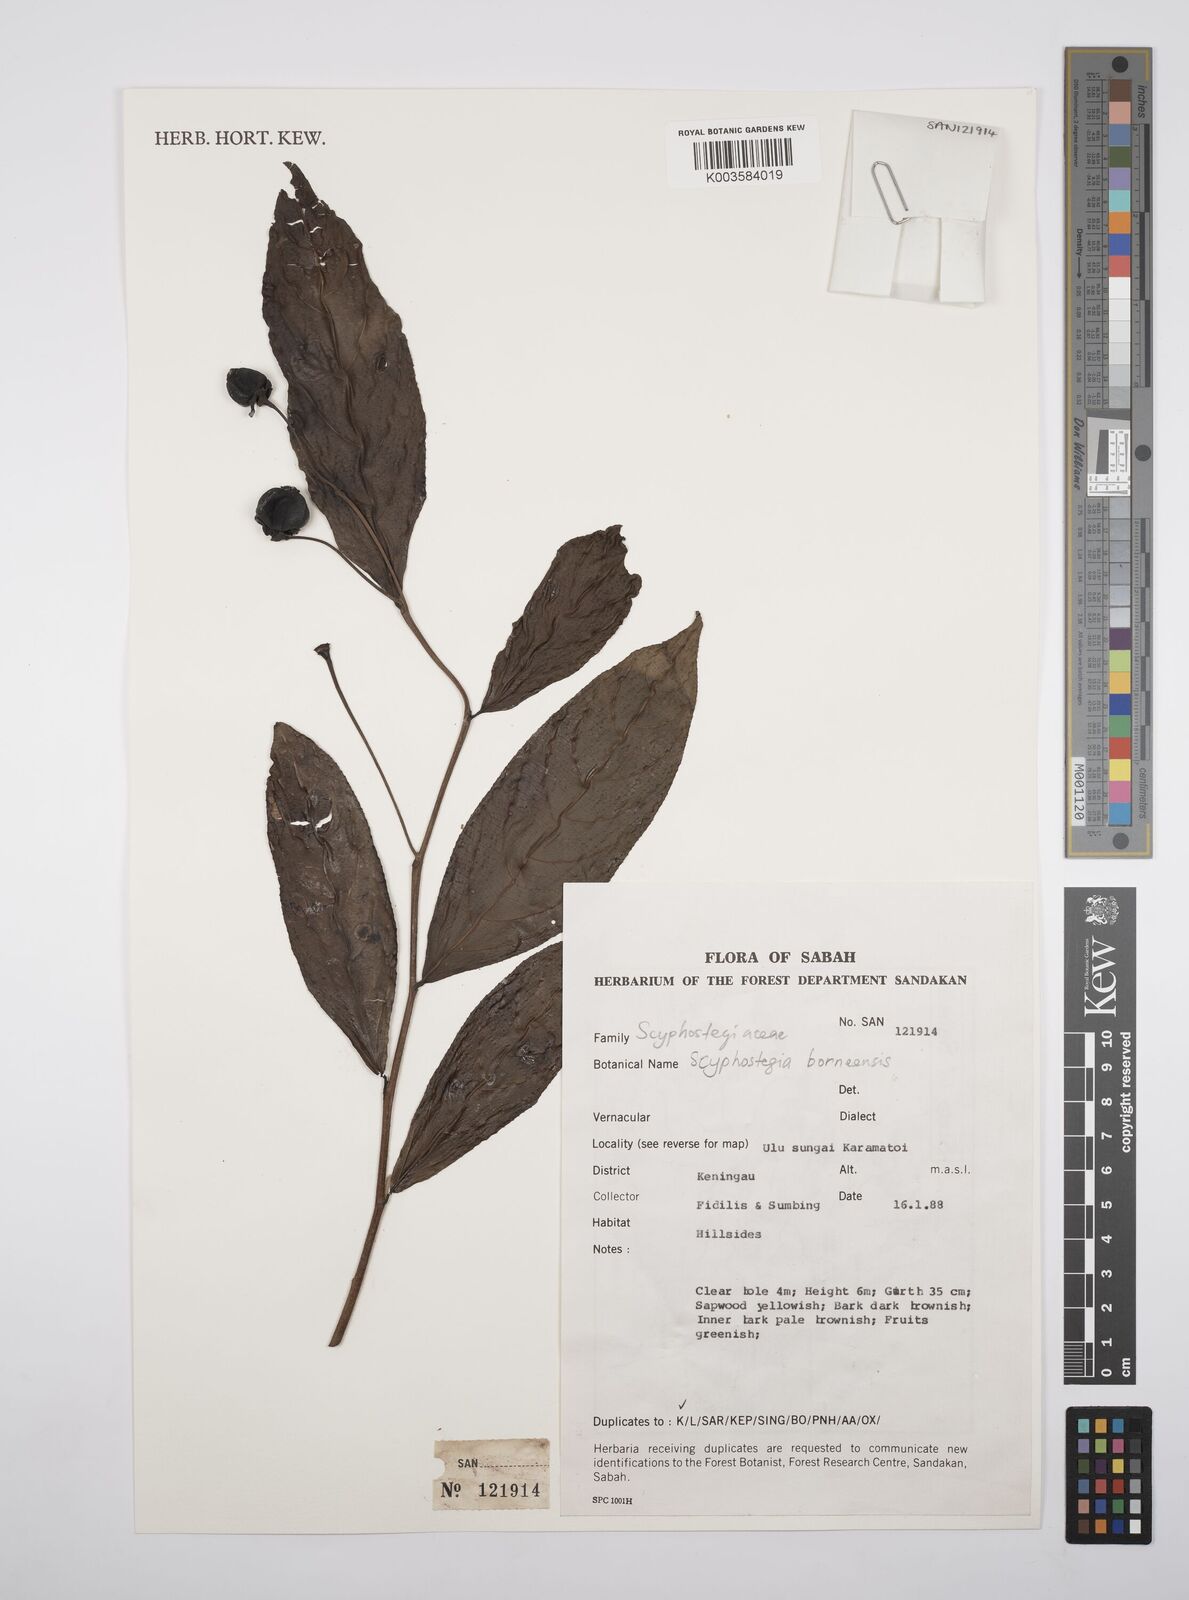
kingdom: Plantae
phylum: Tracheophyta
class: Magnoliopsida
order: Malpighiales
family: Salicaceae
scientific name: Salicaceae
